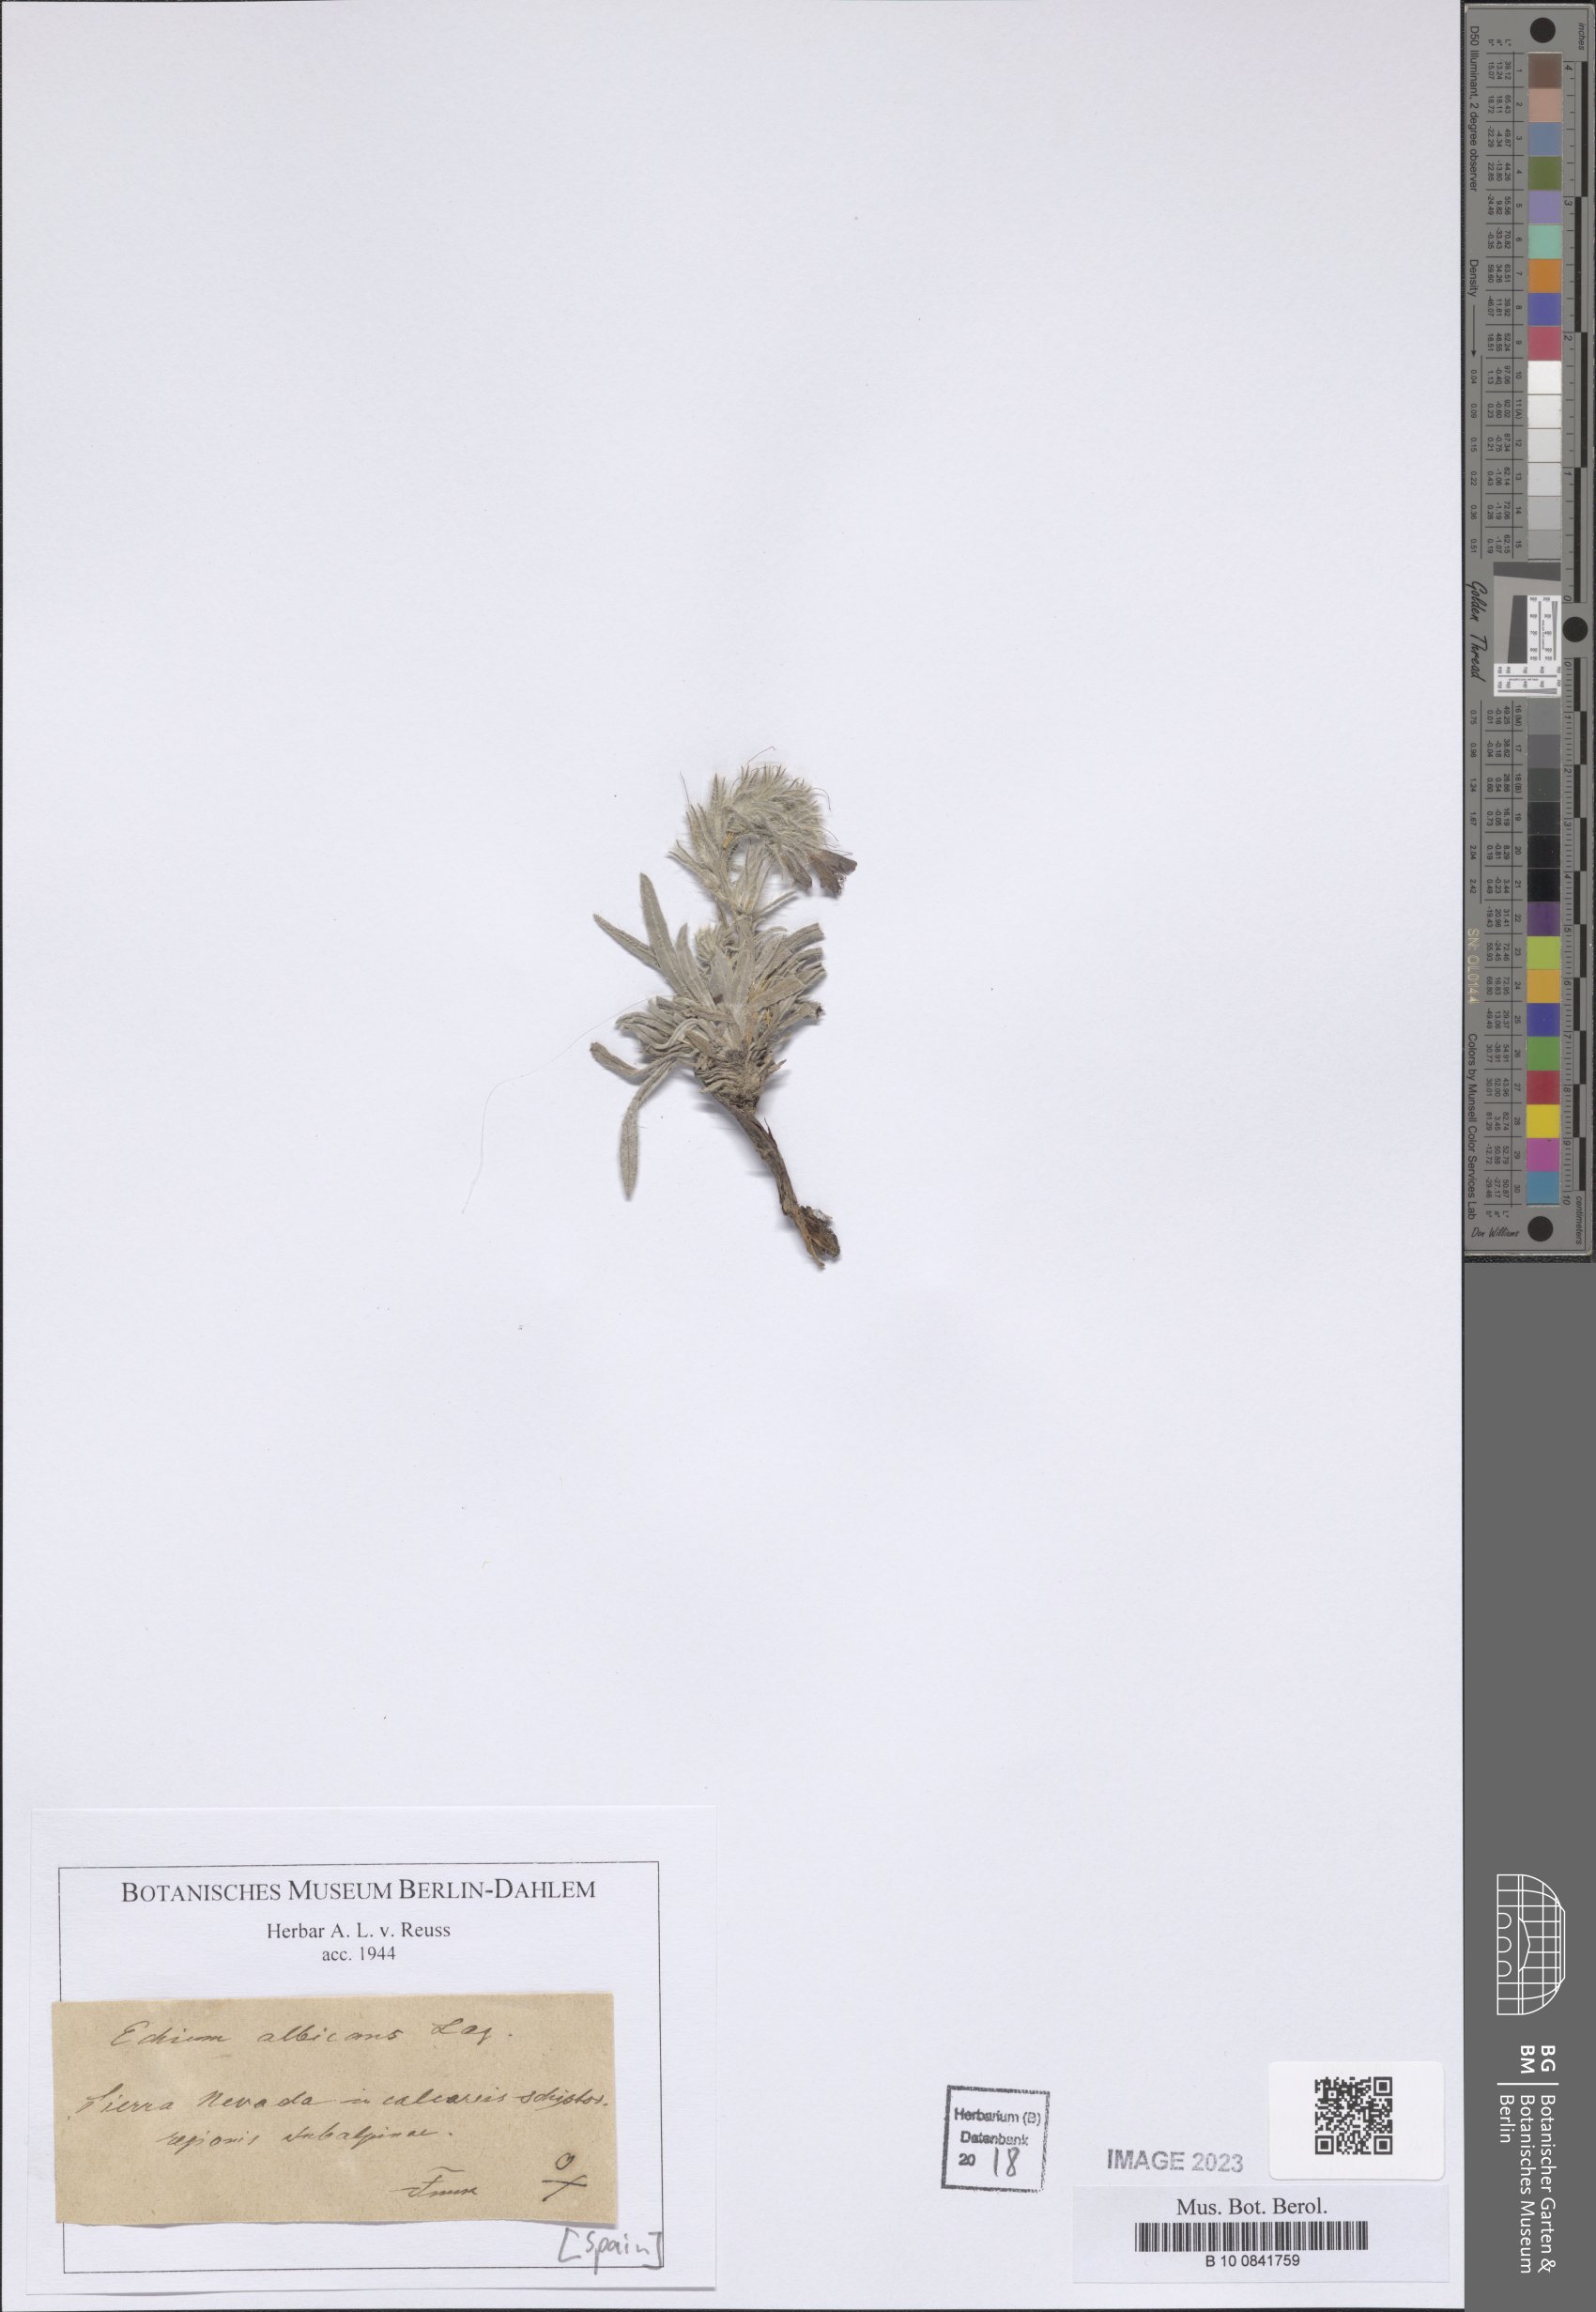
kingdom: Plantae
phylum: Tracheophyta
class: Magnoliopsida
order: Boraginales
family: Boraginaceae
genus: Echium
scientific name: Echium albicans
